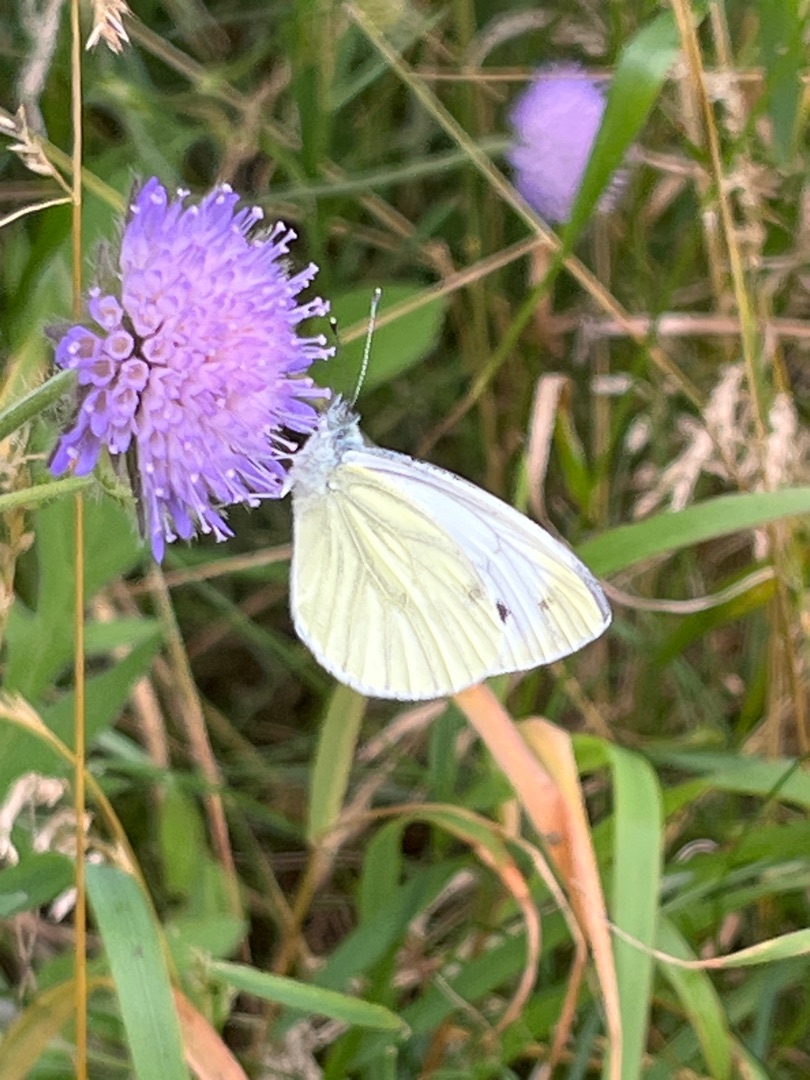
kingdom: Animalia
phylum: Arthropoda
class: Insecta
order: Lepidoptera
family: Pieridae
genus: Pieris
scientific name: Pieris napi
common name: Grønåret kålsommerfugl
